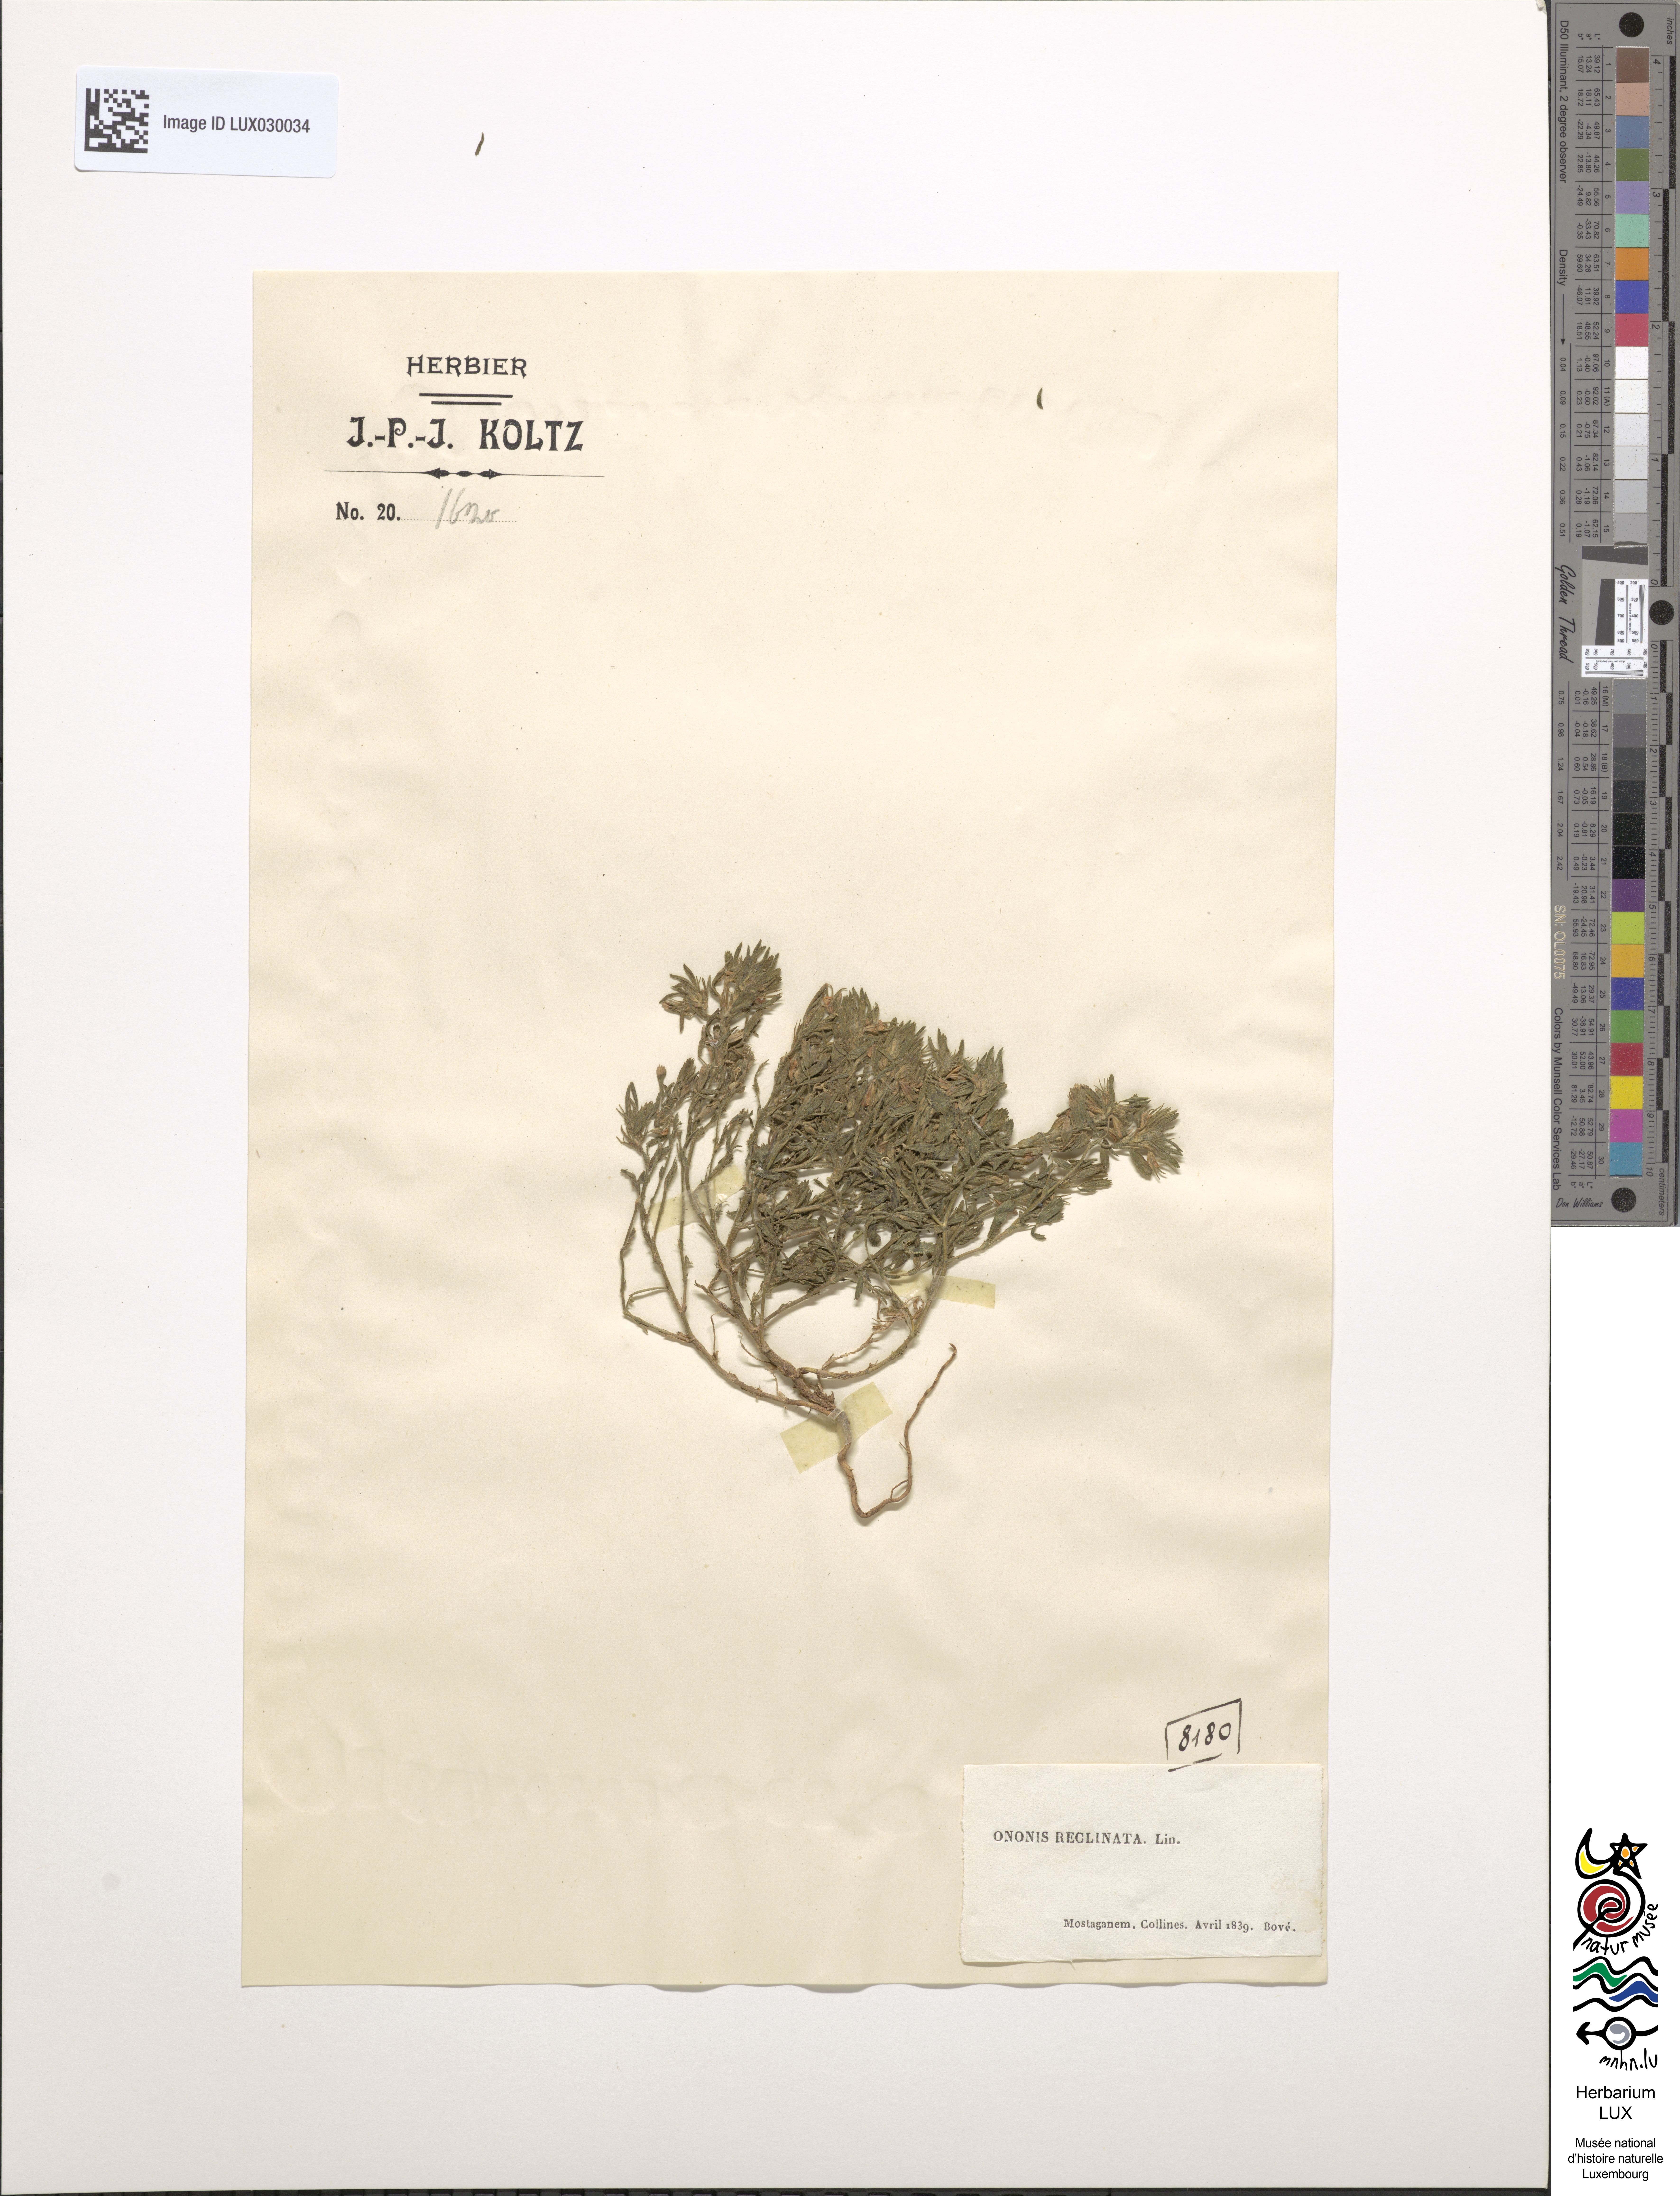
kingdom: Plantae
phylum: Tracheophyta
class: Magnoliopsida
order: Fabales
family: Fabaceae
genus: Ononis
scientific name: Ononis reclinata
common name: Small restharrow
